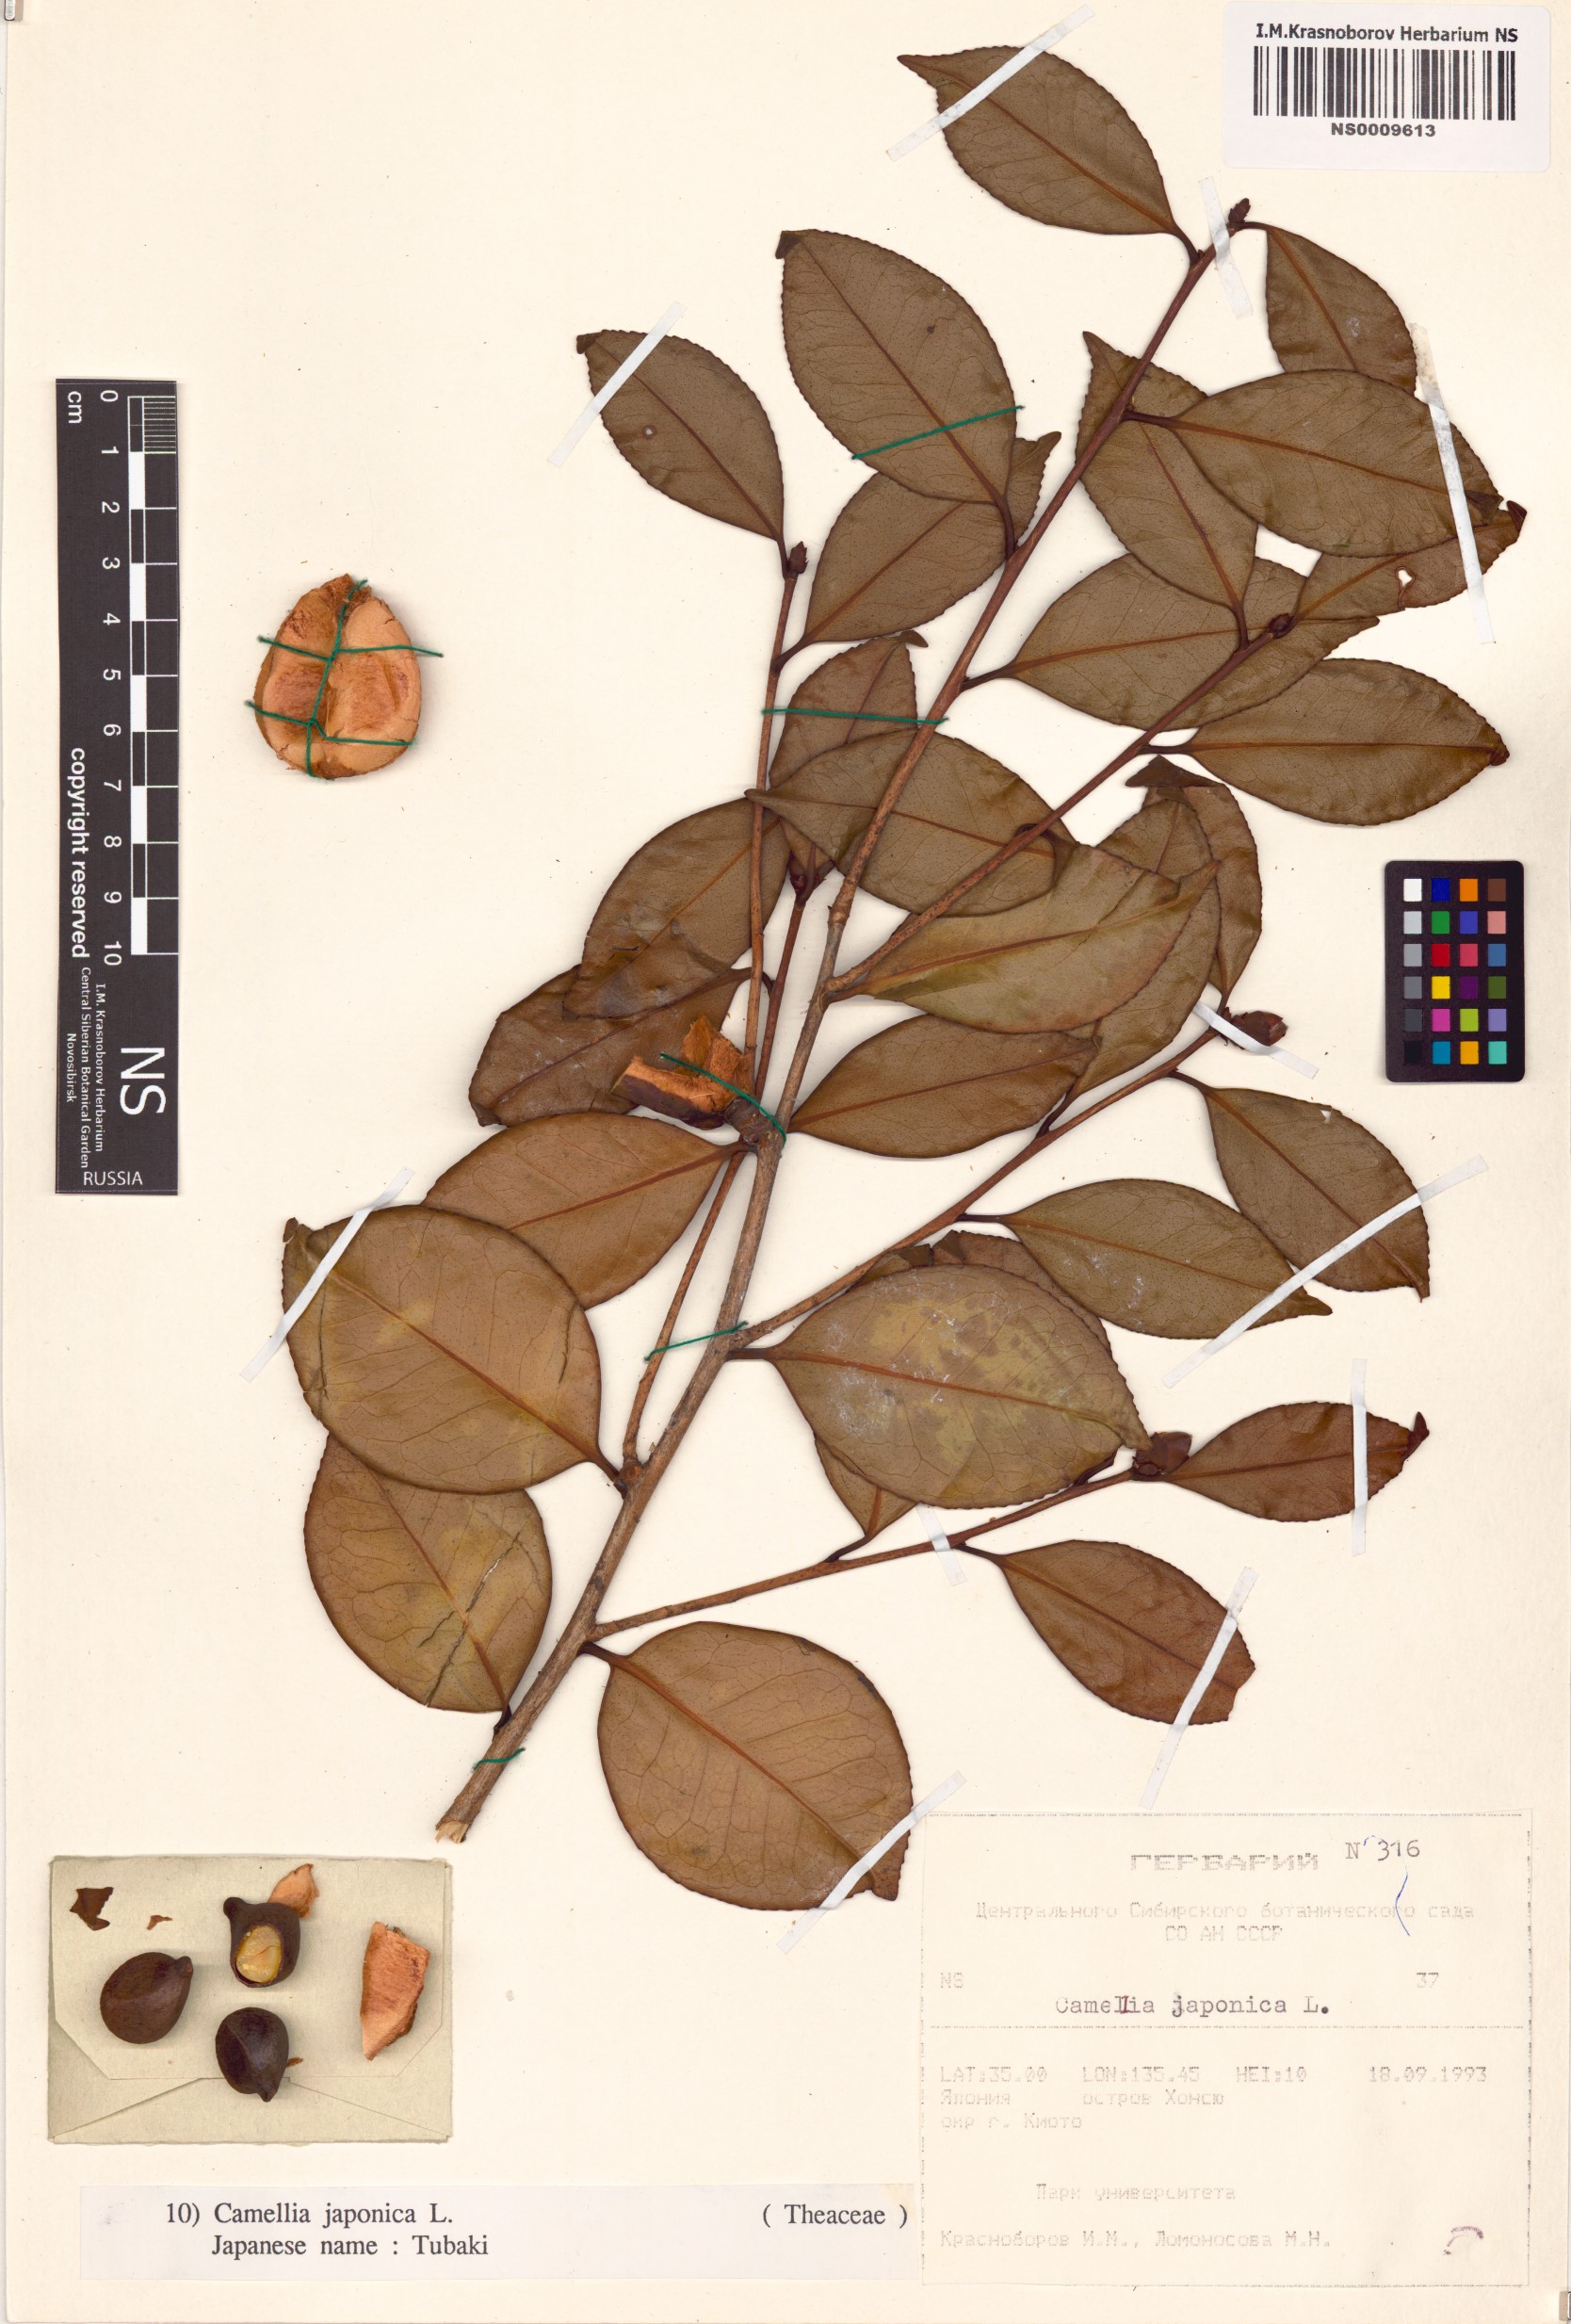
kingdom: Plantae
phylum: Tracheophyta
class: Magnoliopsida
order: Ericales
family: Theaceae
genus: Camellia
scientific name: Camellia japonica
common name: Camellia
